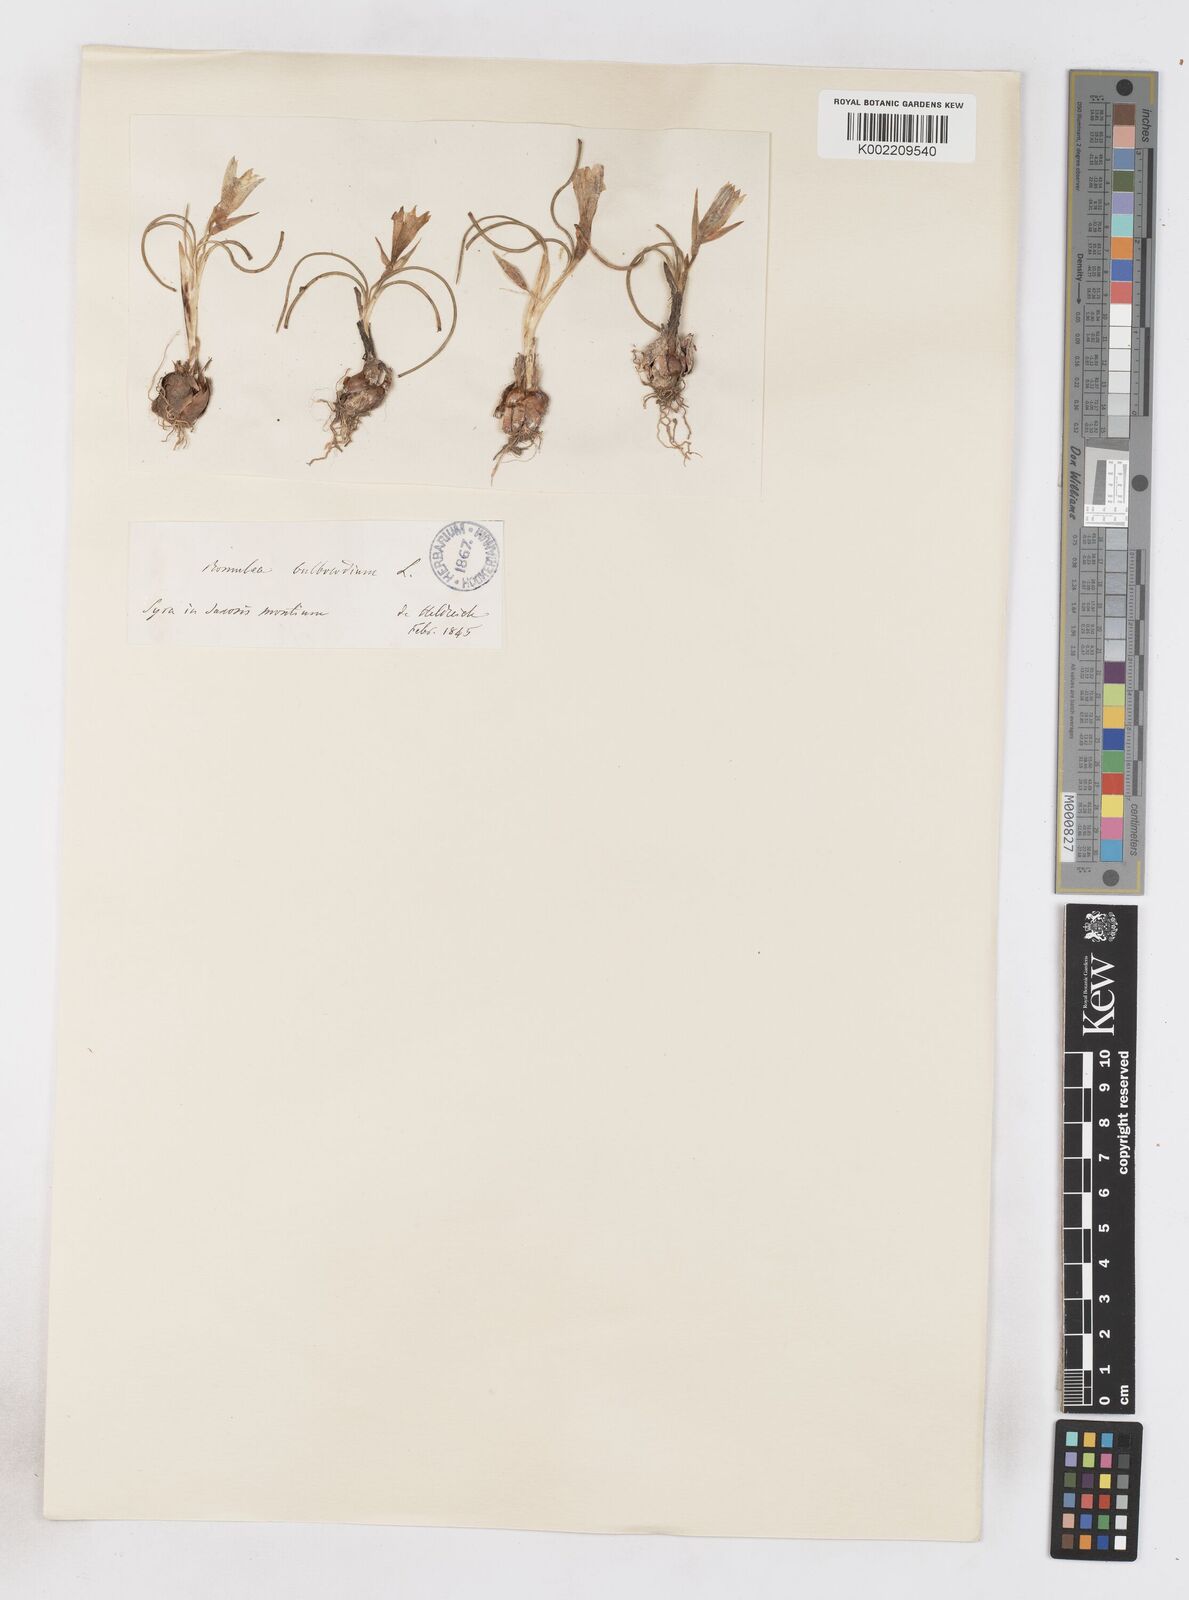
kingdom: Plantae
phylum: Tracheophyta
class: Liliopsida
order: Asparagales
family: Iridaceae
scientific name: Iridaceae
